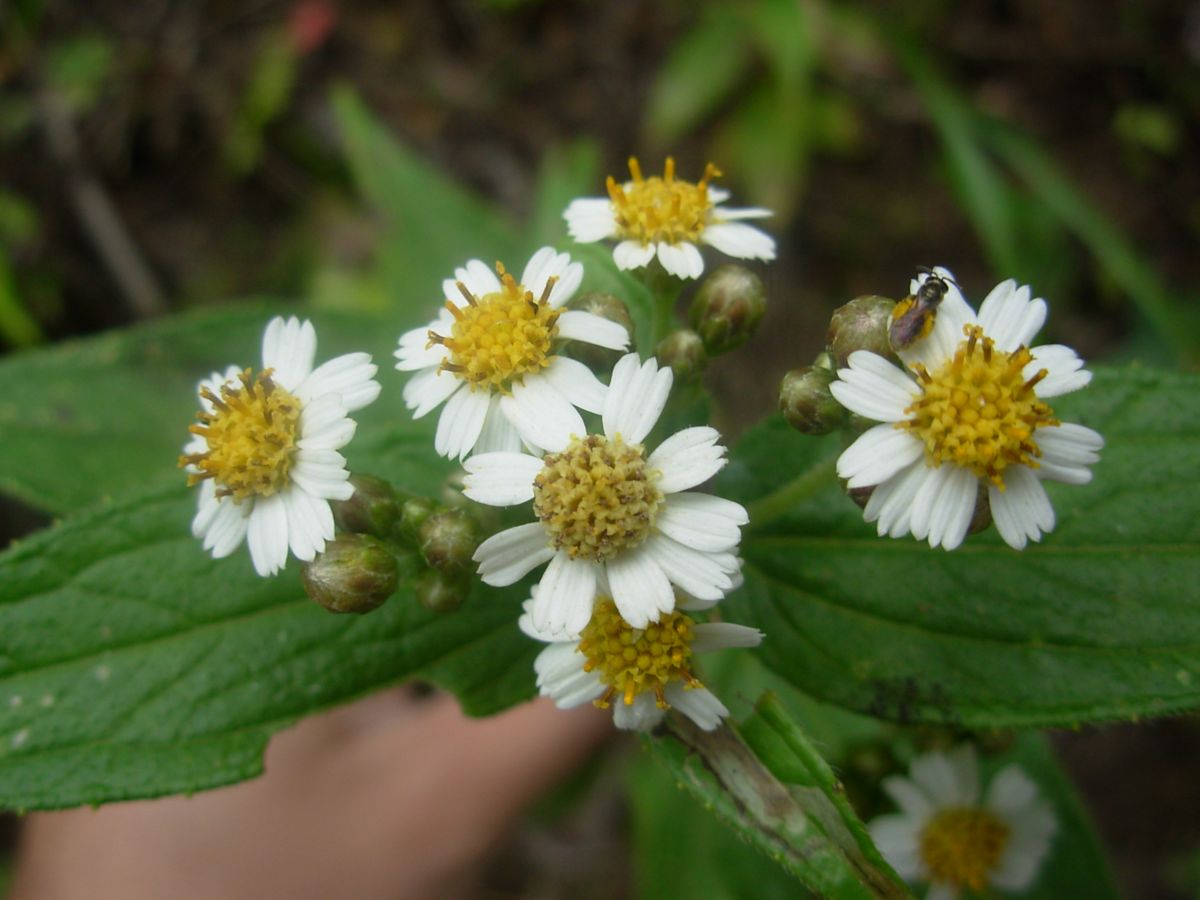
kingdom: Plantae
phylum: Tracheophyta
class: Magnoliopsida
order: Asterales
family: Asteraceae
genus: Alloispermum
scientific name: Alloispermum integrifolium
